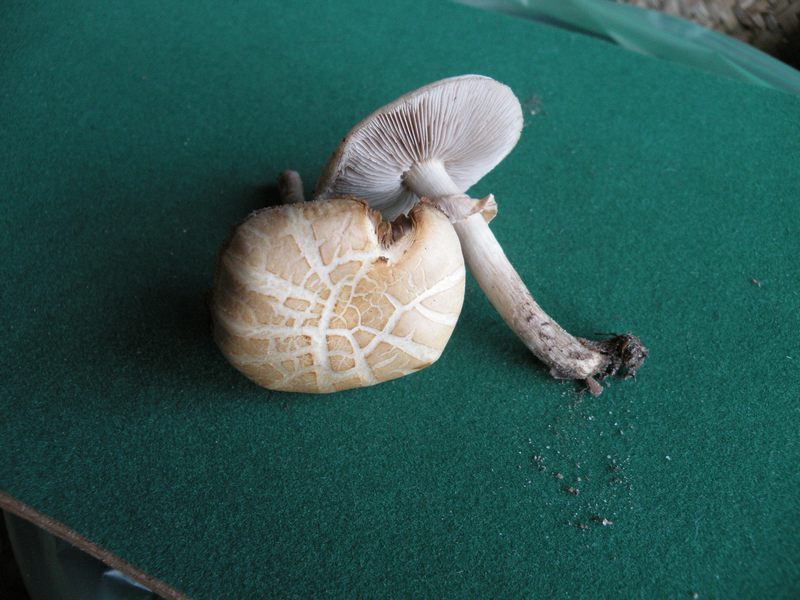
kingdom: Fungi
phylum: Basidiomycota
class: Agaricomycetes
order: Agaricales
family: Strophariaceae
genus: Agrocybe
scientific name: Agrocybe praecox
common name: tidlig agerhat
